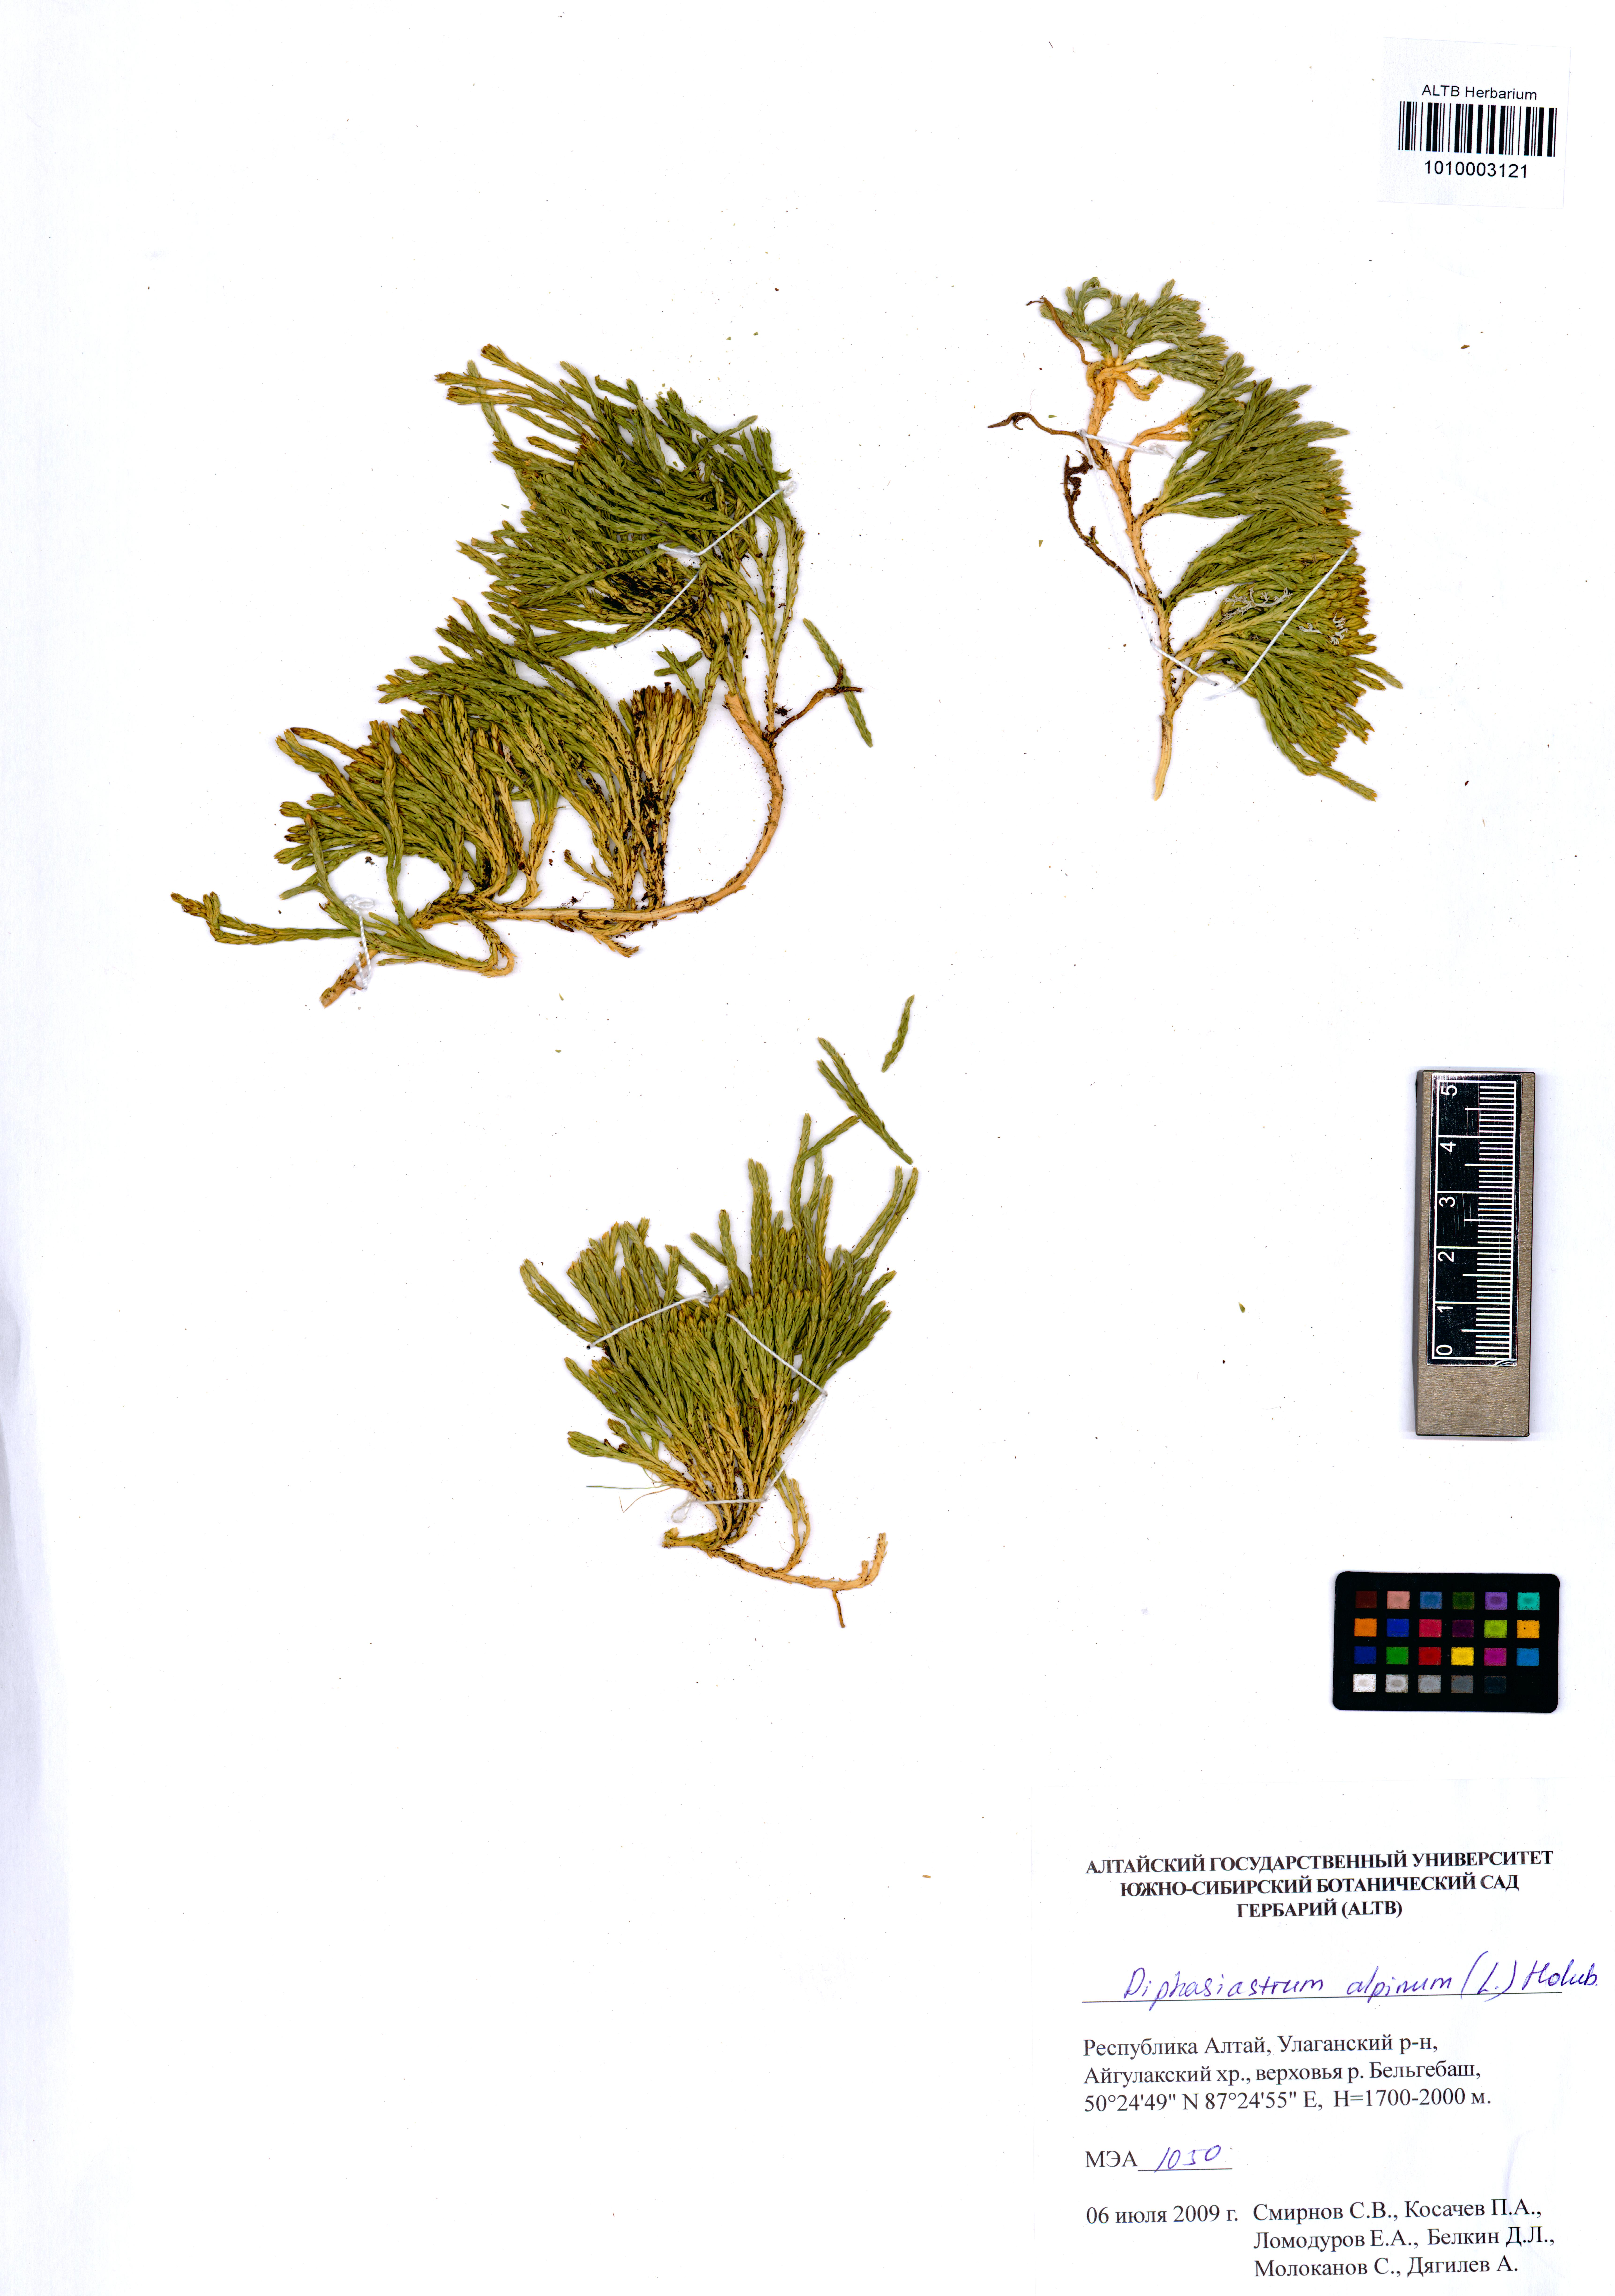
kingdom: Plantae
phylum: Tracheophyta
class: Lycopodiopsida
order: Lycopodiales
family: Lycopodiaceae
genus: Diphasiastrum
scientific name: Diphasiastrum alpinum
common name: Alpine clubmoss
